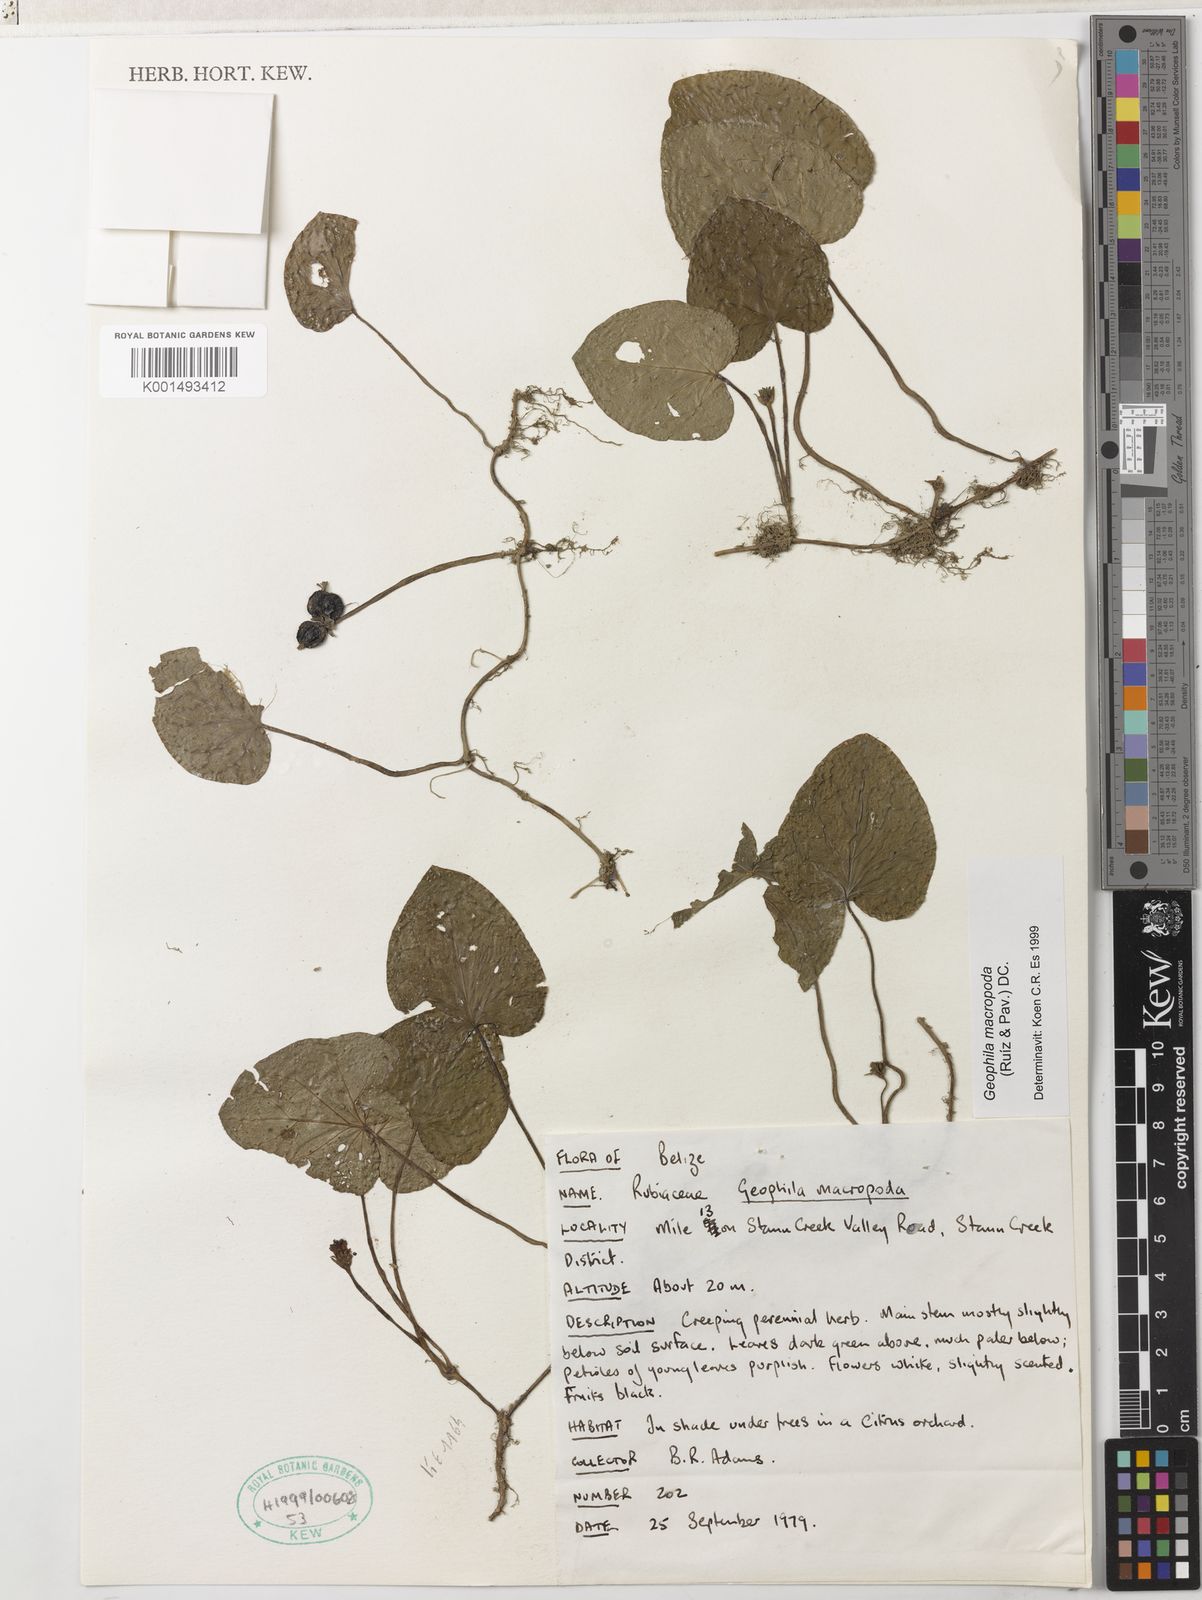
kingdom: Plantae
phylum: Tracheophyta
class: Magnoliopsida
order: Gentianales
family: Rubiaceae
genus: Geophila
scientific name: Geophila macropoda
